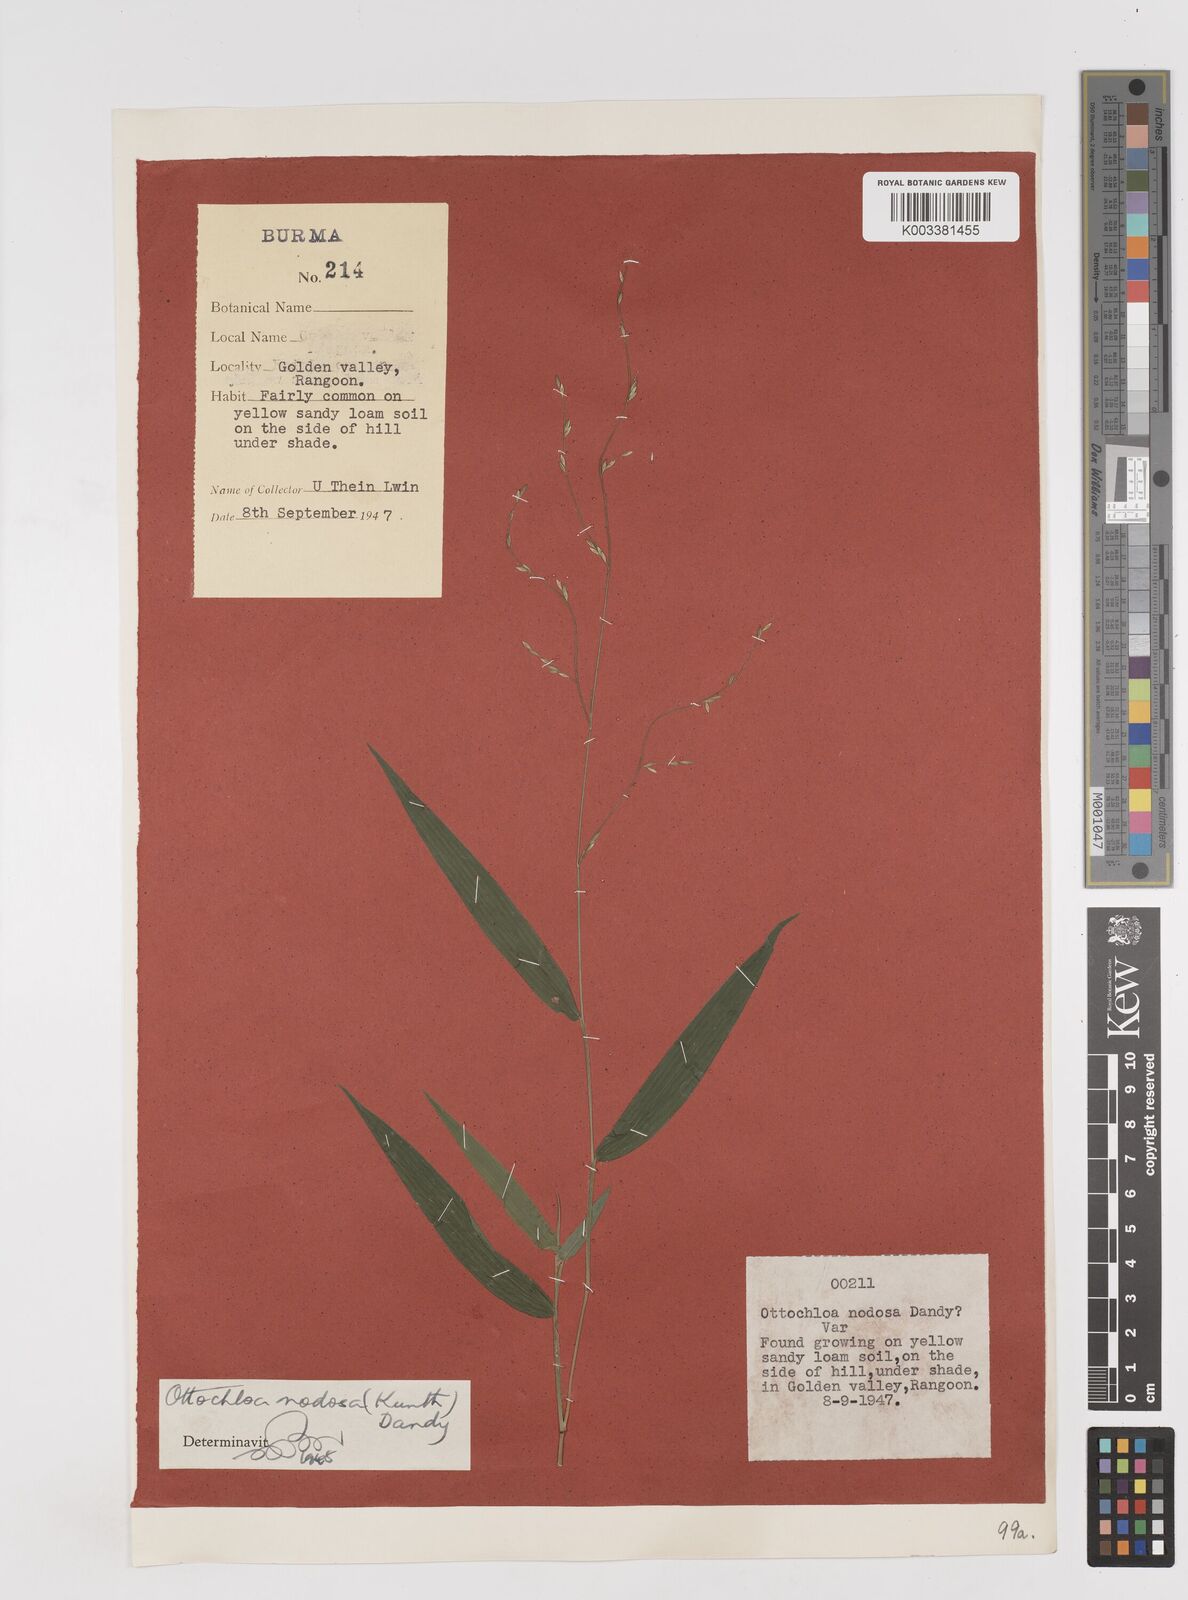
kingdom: Plantae
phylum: Tracheophyta
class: Liliopsida
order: Poales
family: Poaceae
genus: Ottochloa
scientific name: Ottochloa nodosa
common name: Slender-panic grass
